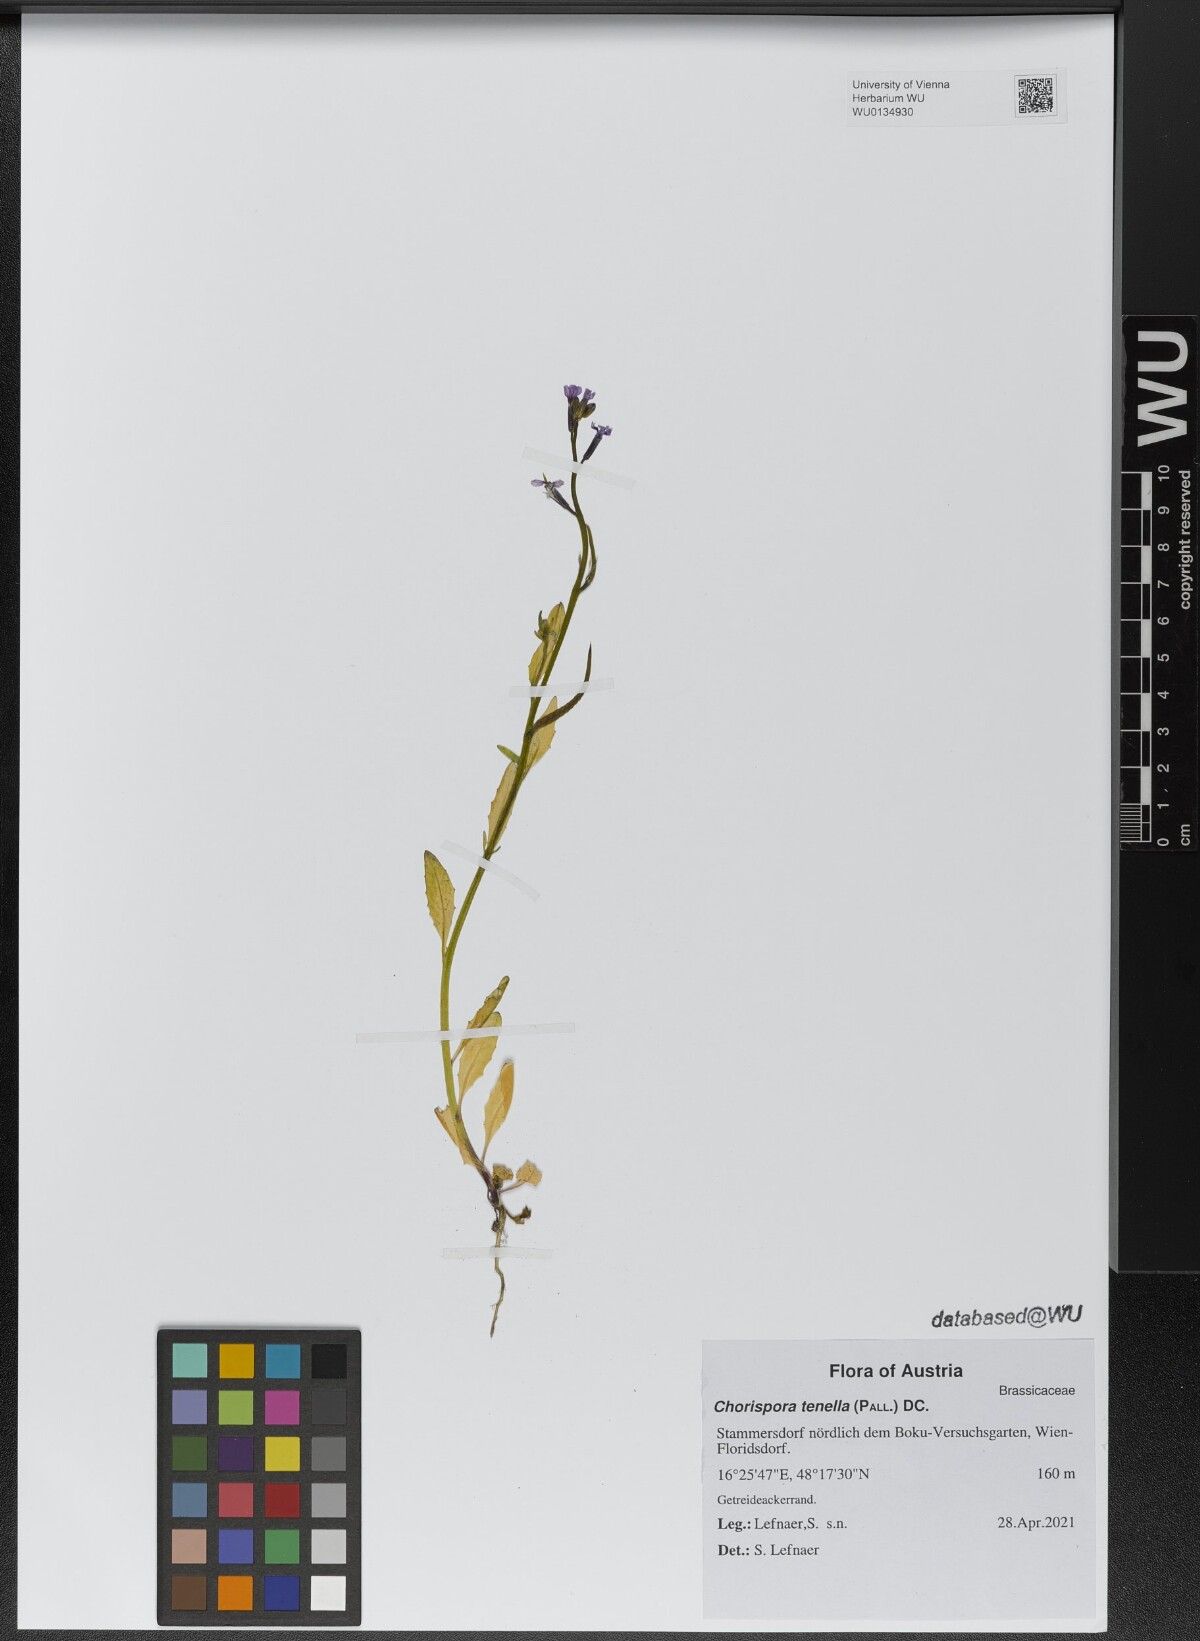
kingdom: Plantae
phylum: Tracheophyta
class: Magnoliopsida
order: Brassicales
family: Brassicaceae
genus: Chorispora
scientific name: Chorispora tenella
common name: Crossflower
